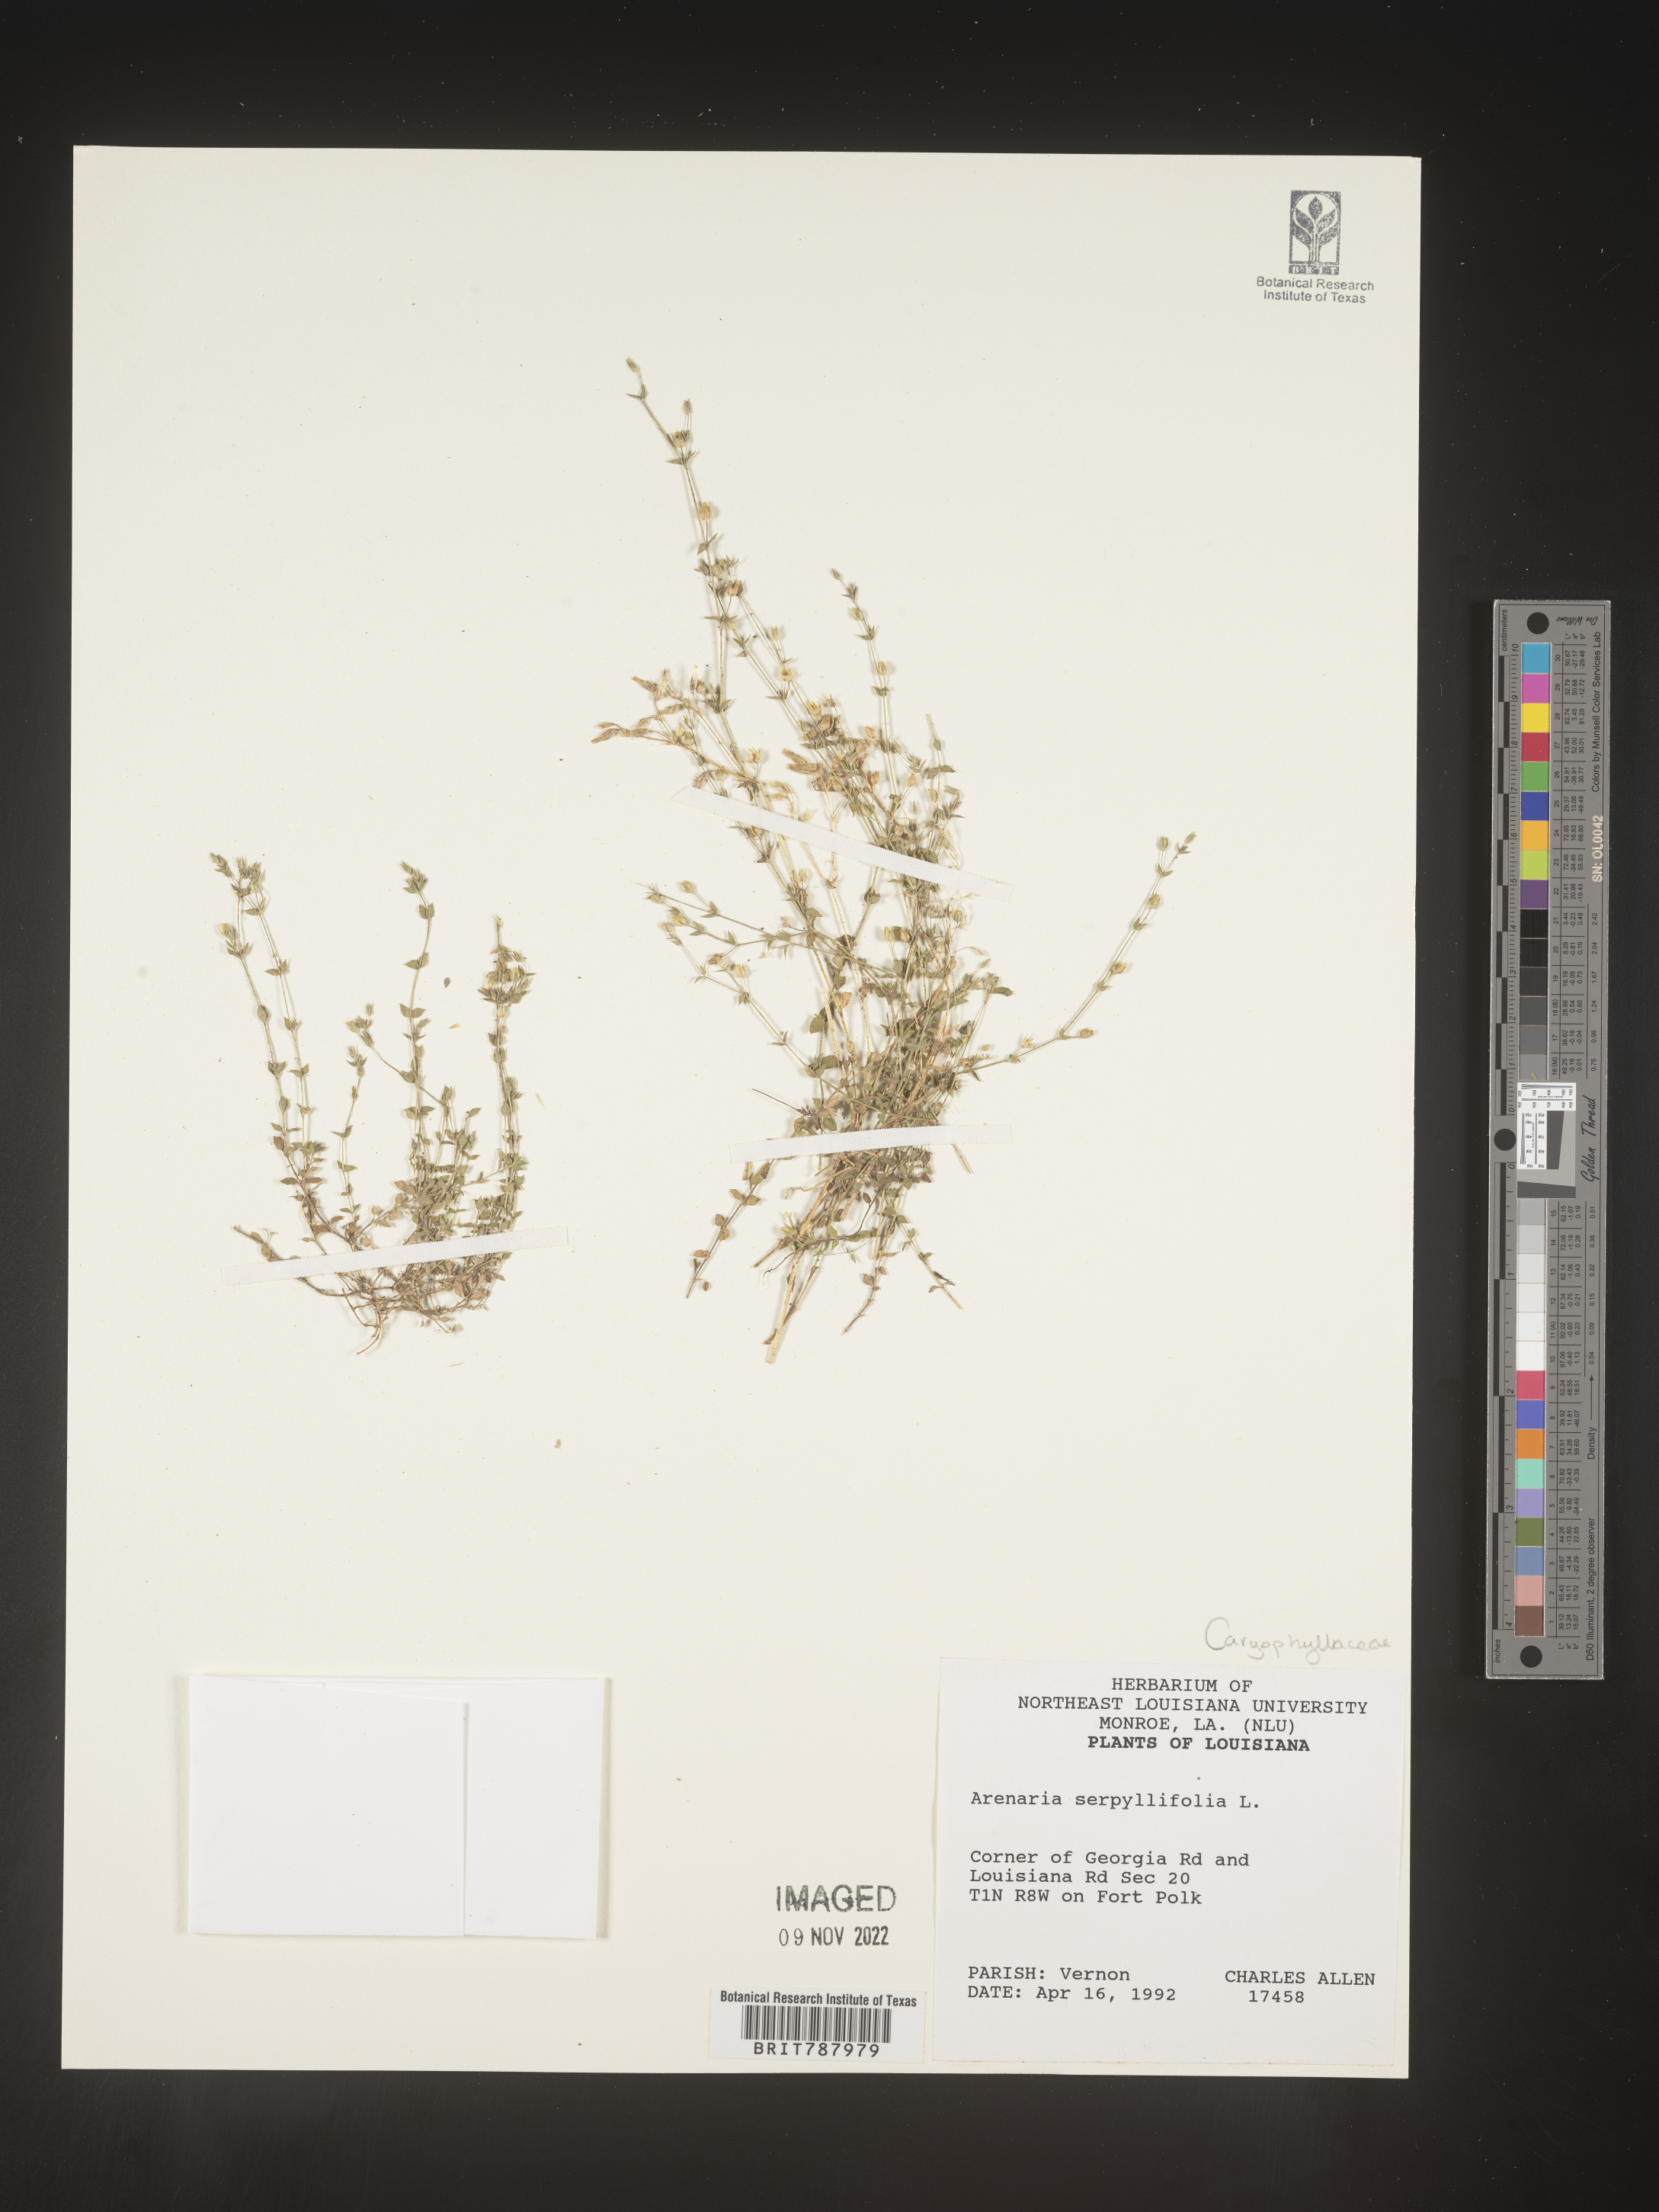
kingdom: Plantae
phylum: Tracheophyta
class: Magnoliopsida
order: Caryophyllales
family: Caryophyllaceae
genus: Arenaria
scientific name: Arenaria serpyllifolia
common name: Thyme-leaved sandwort
